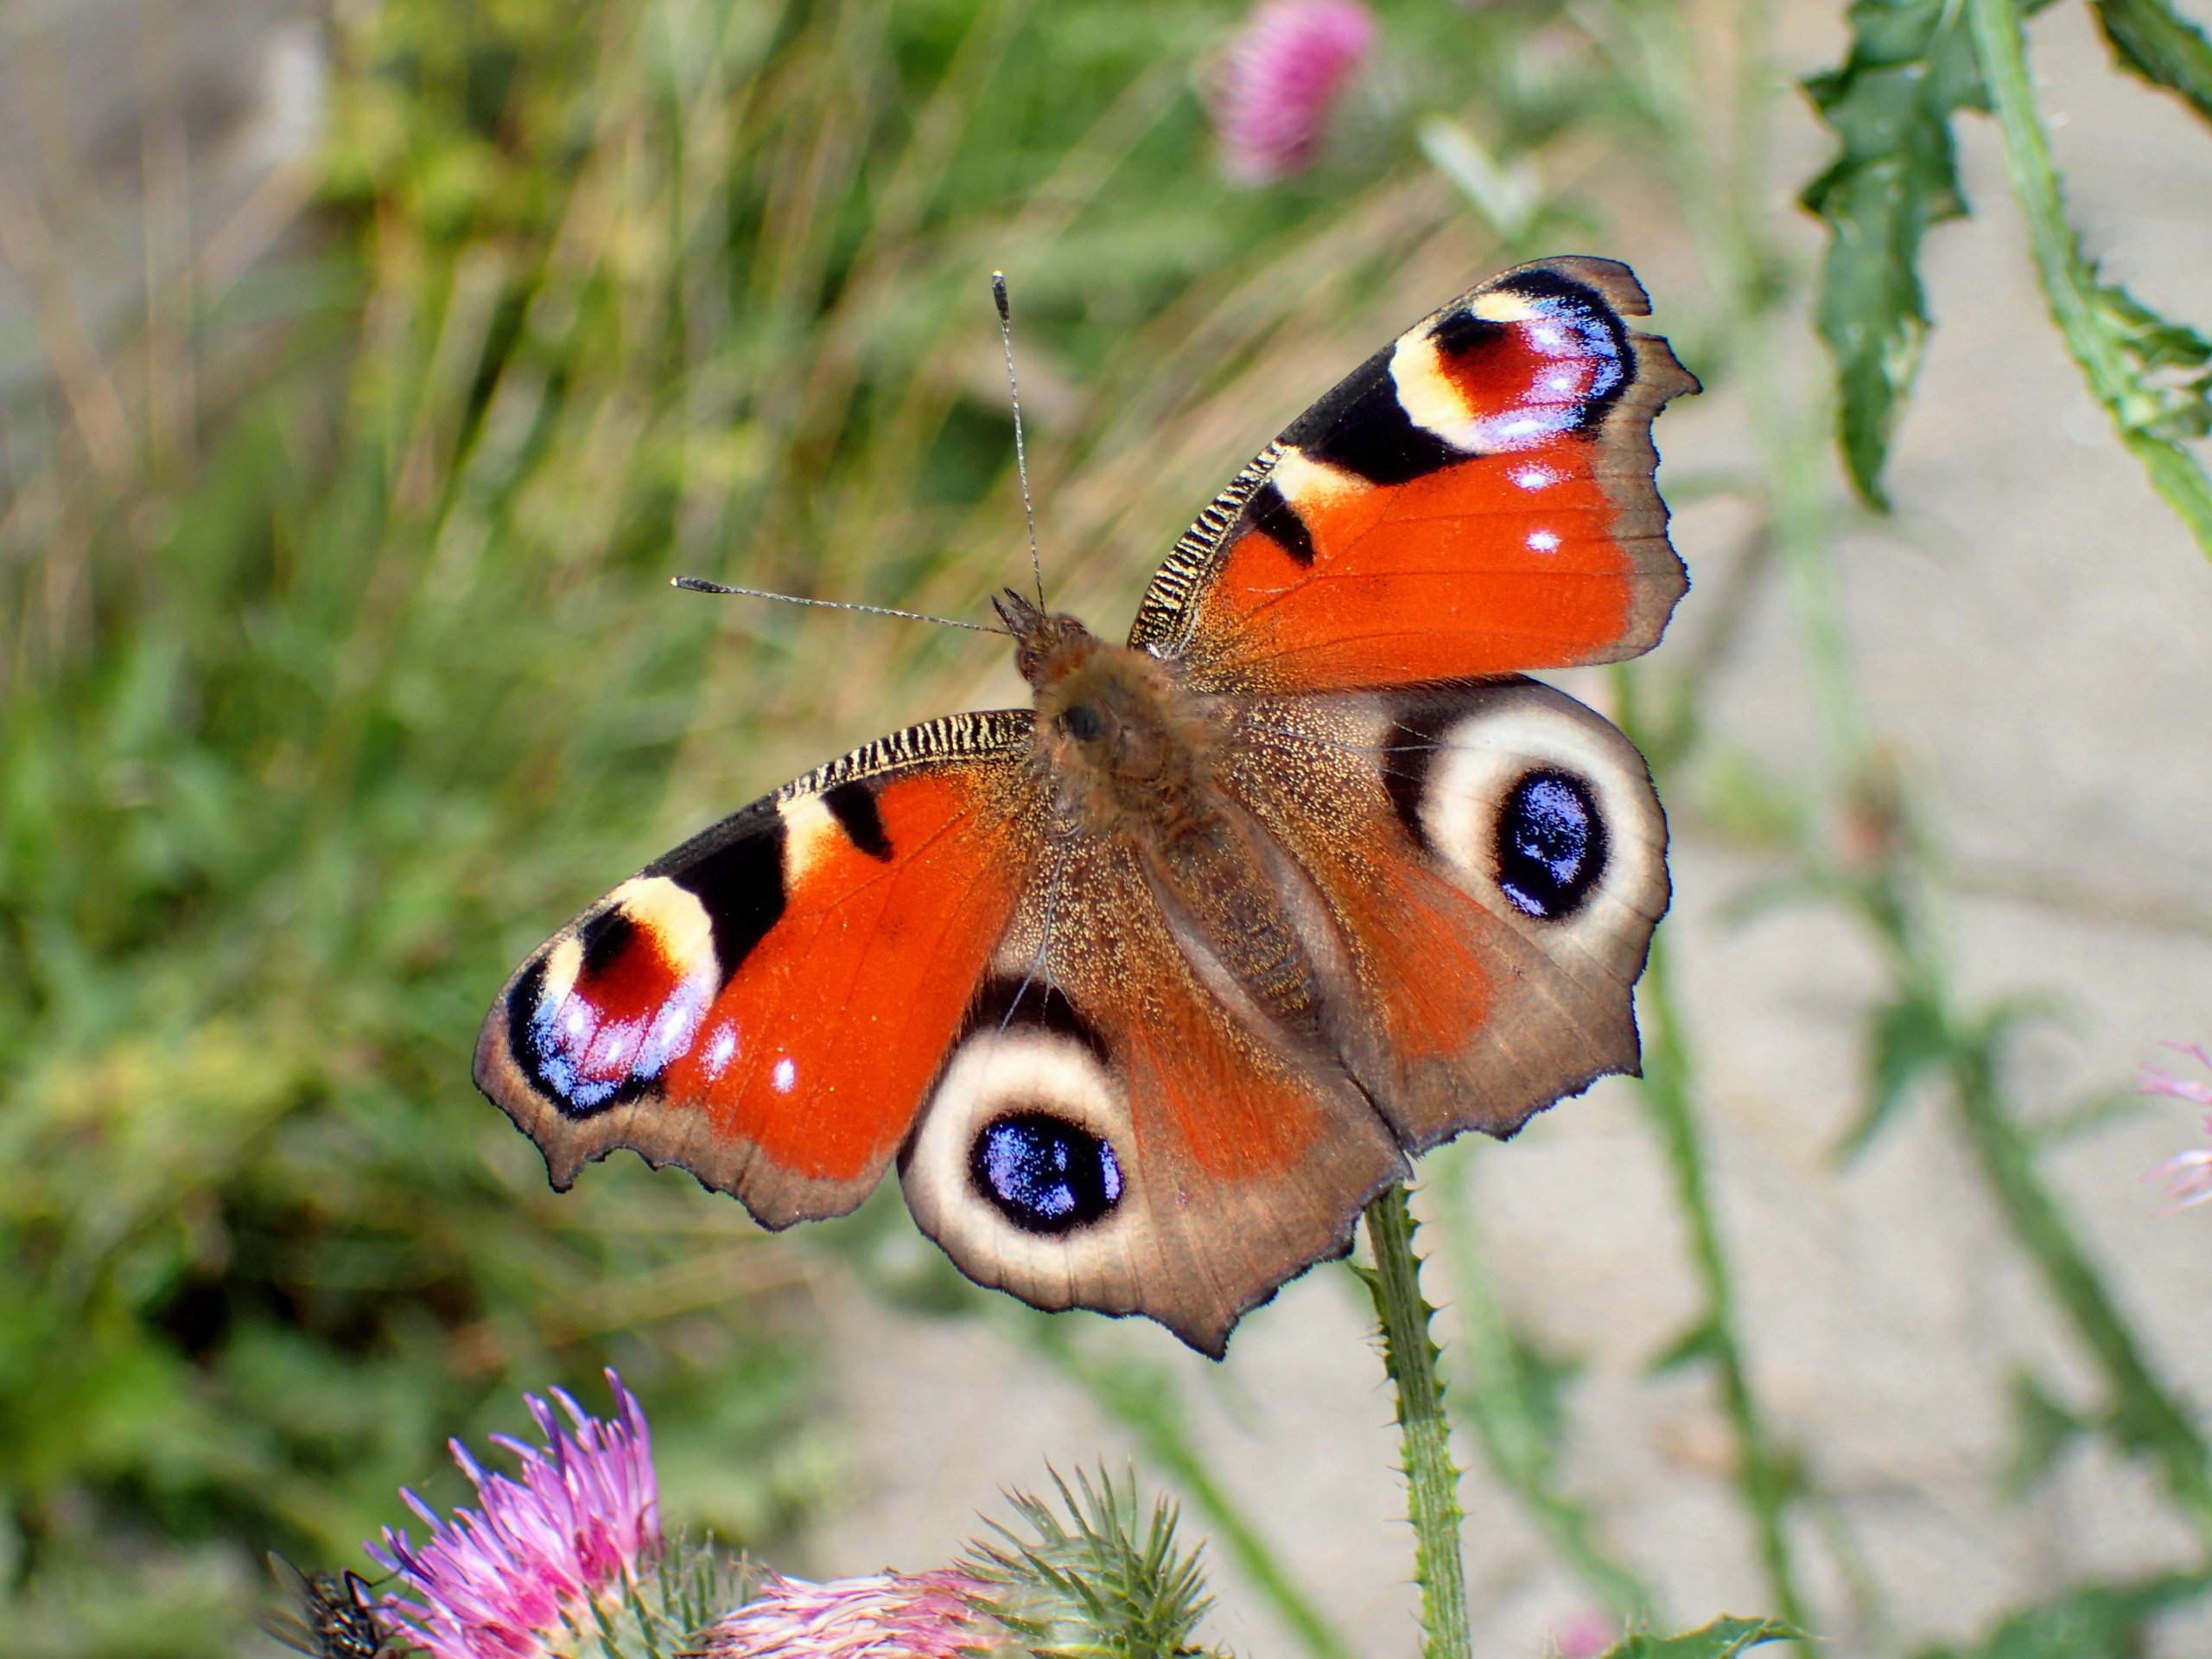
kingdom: Animalia
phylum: Arthropoda
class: Insecta
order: Lepidoptera
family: Nymphalidae
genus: Aglais
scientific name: Aglais io
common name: Dagpåfugleøje
